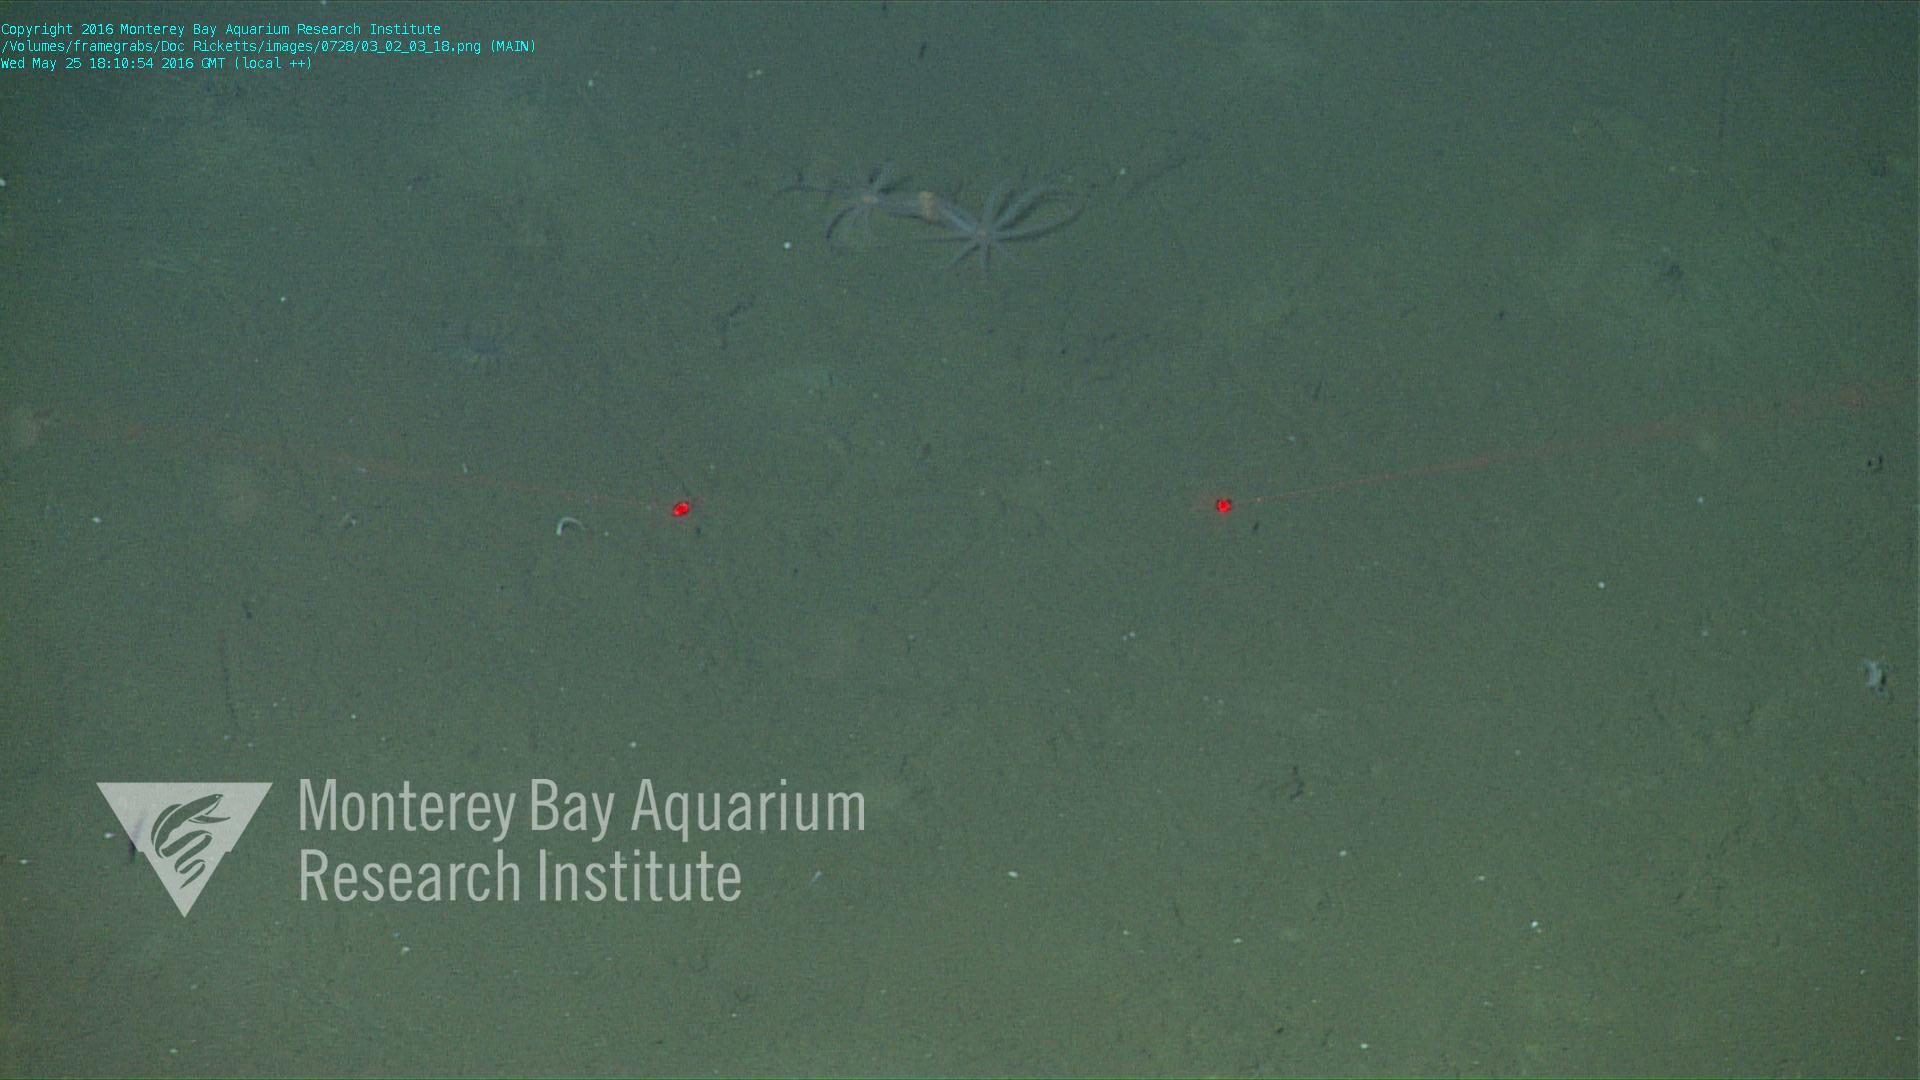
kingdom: Animalia
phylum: Cnidaria
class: Anthozoa
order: Scleralcyonacea
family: Coralliidae
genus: Bathyalcyon
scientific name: Bathyalcyon robustum
